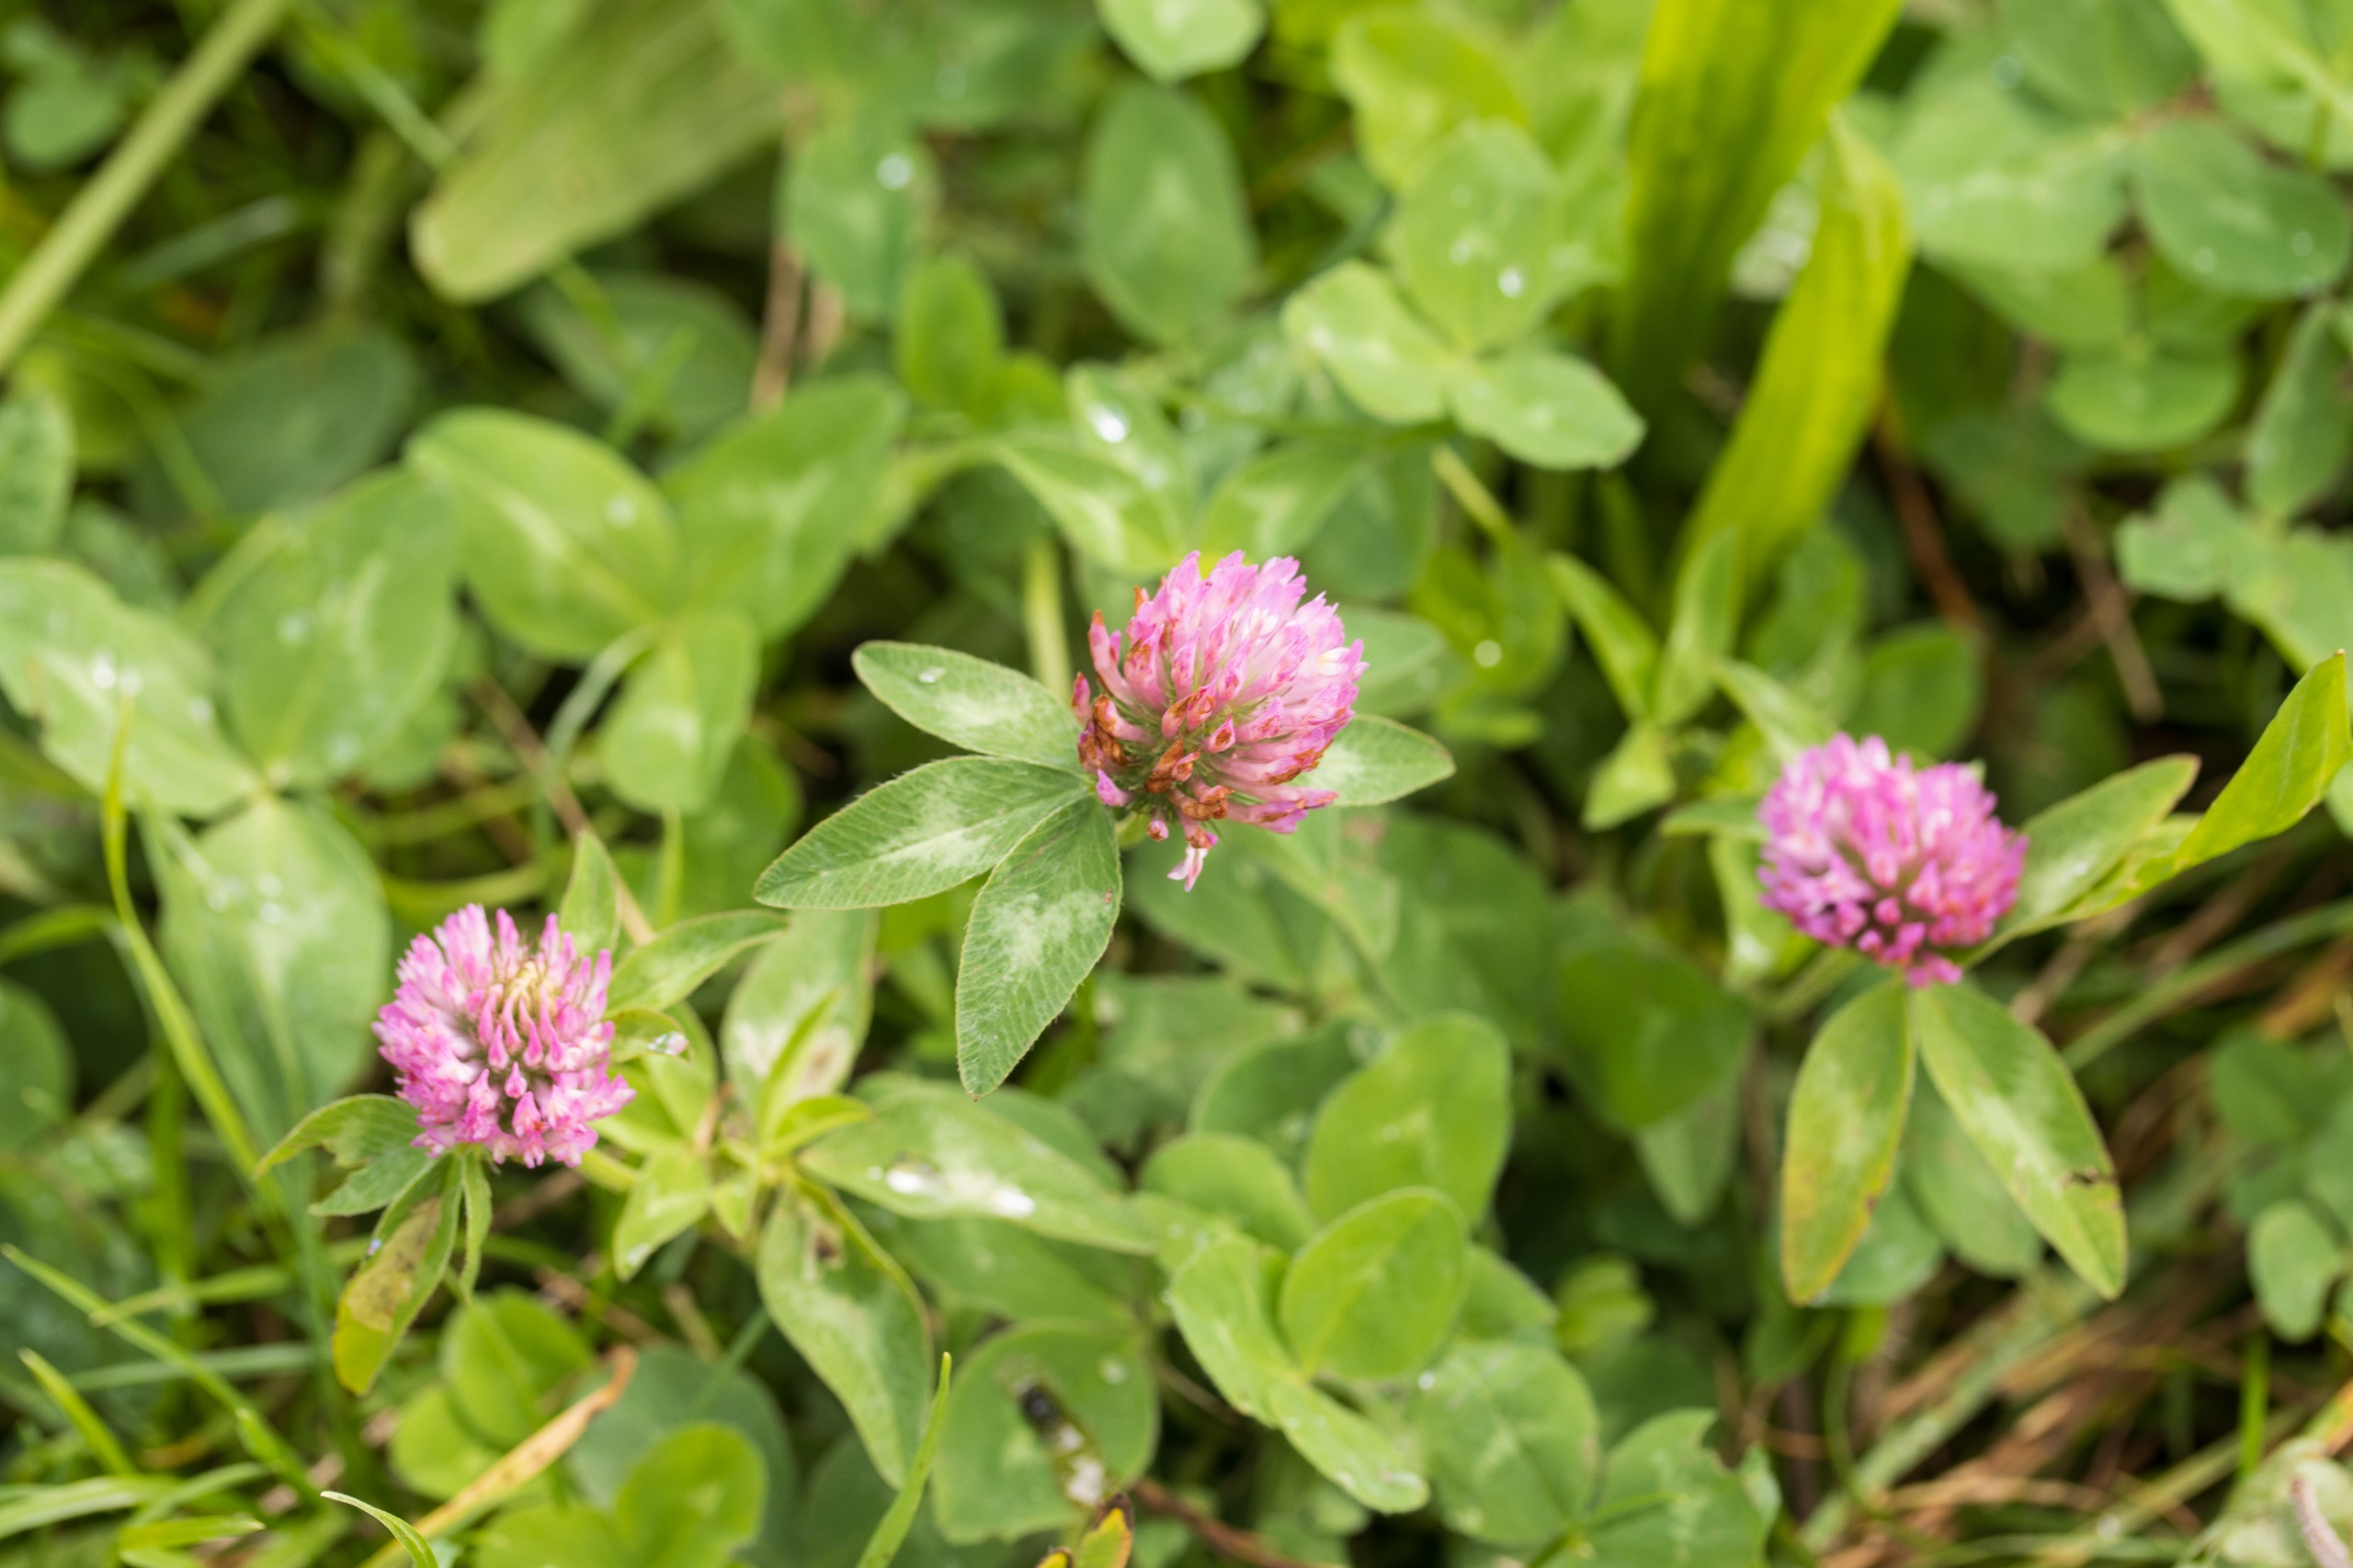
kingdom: Plantae
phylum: Tracheophyta
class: Magnoliopsida
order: Fabales
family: Fabaceae
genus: Trifolium
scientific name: Trifolium pratense
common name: Rød-kløver
